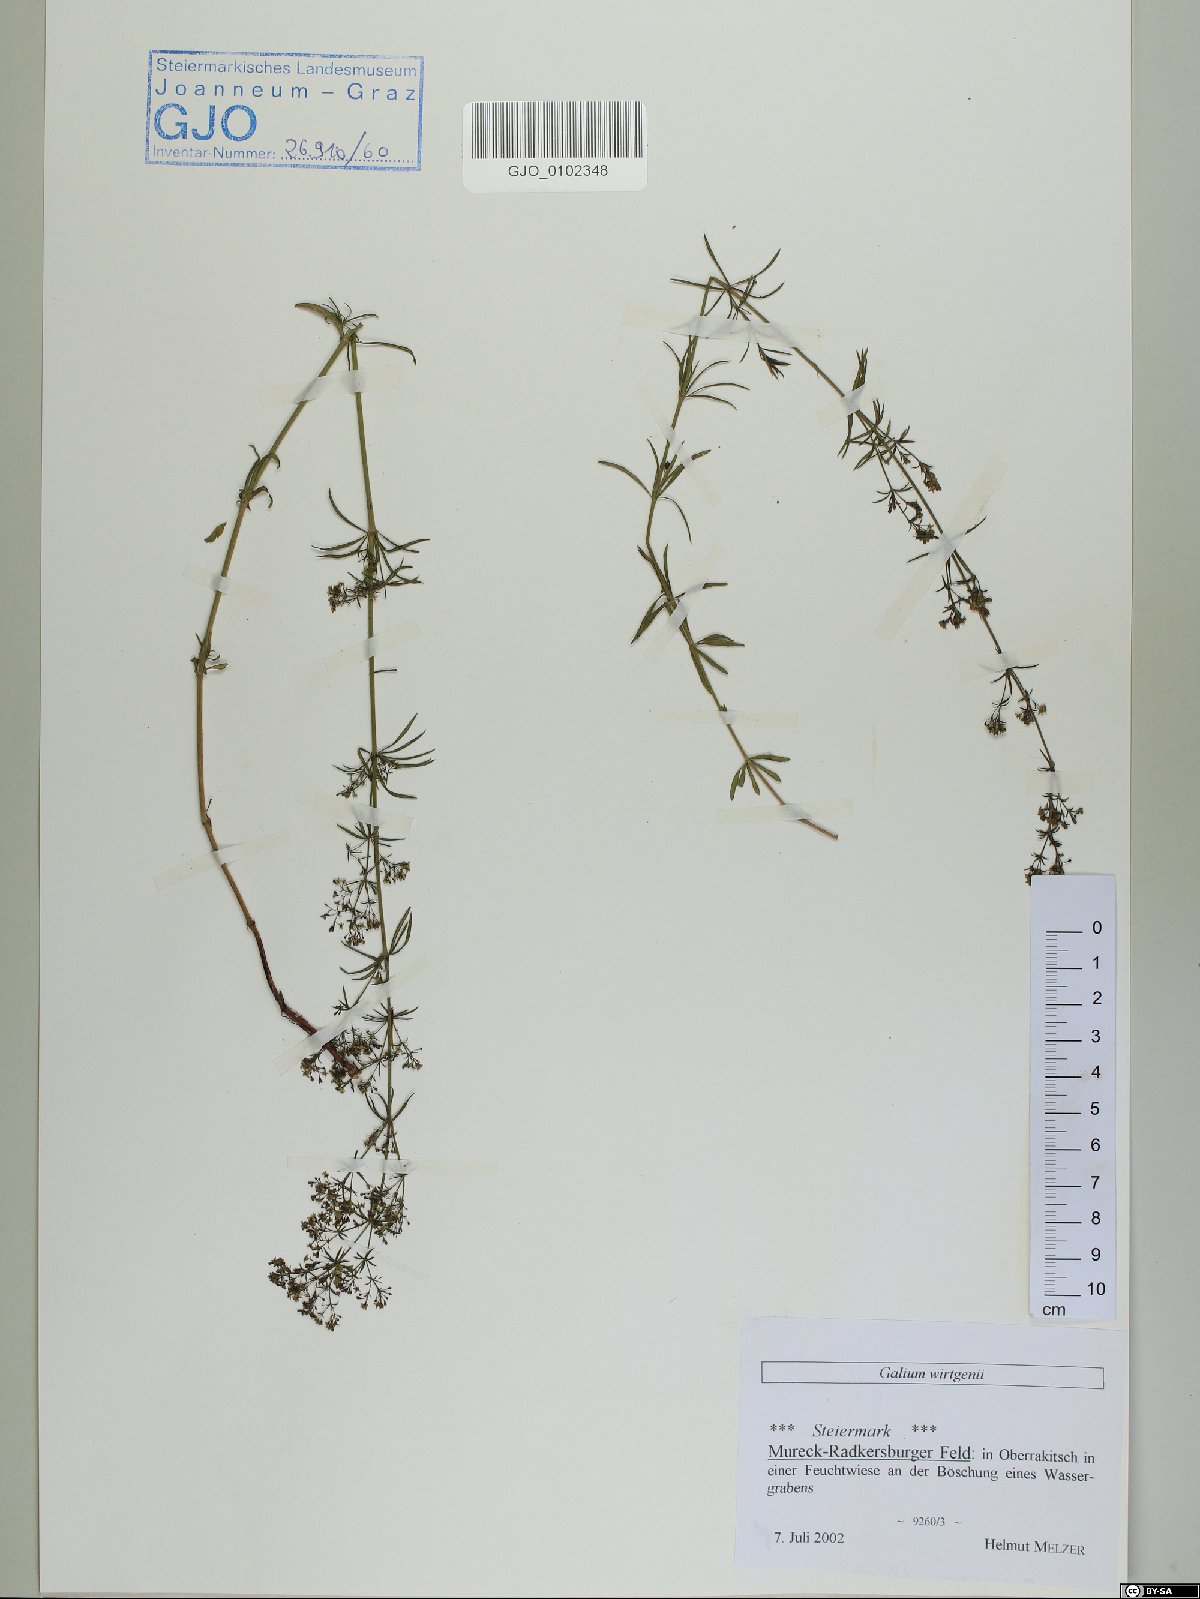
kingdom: Plantae
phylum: Tracheophyta
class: Magnoliopsida
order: Gentianales
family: Rubiaceae
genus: Galium
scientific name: Galium verum
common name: Lady's bedstraw
